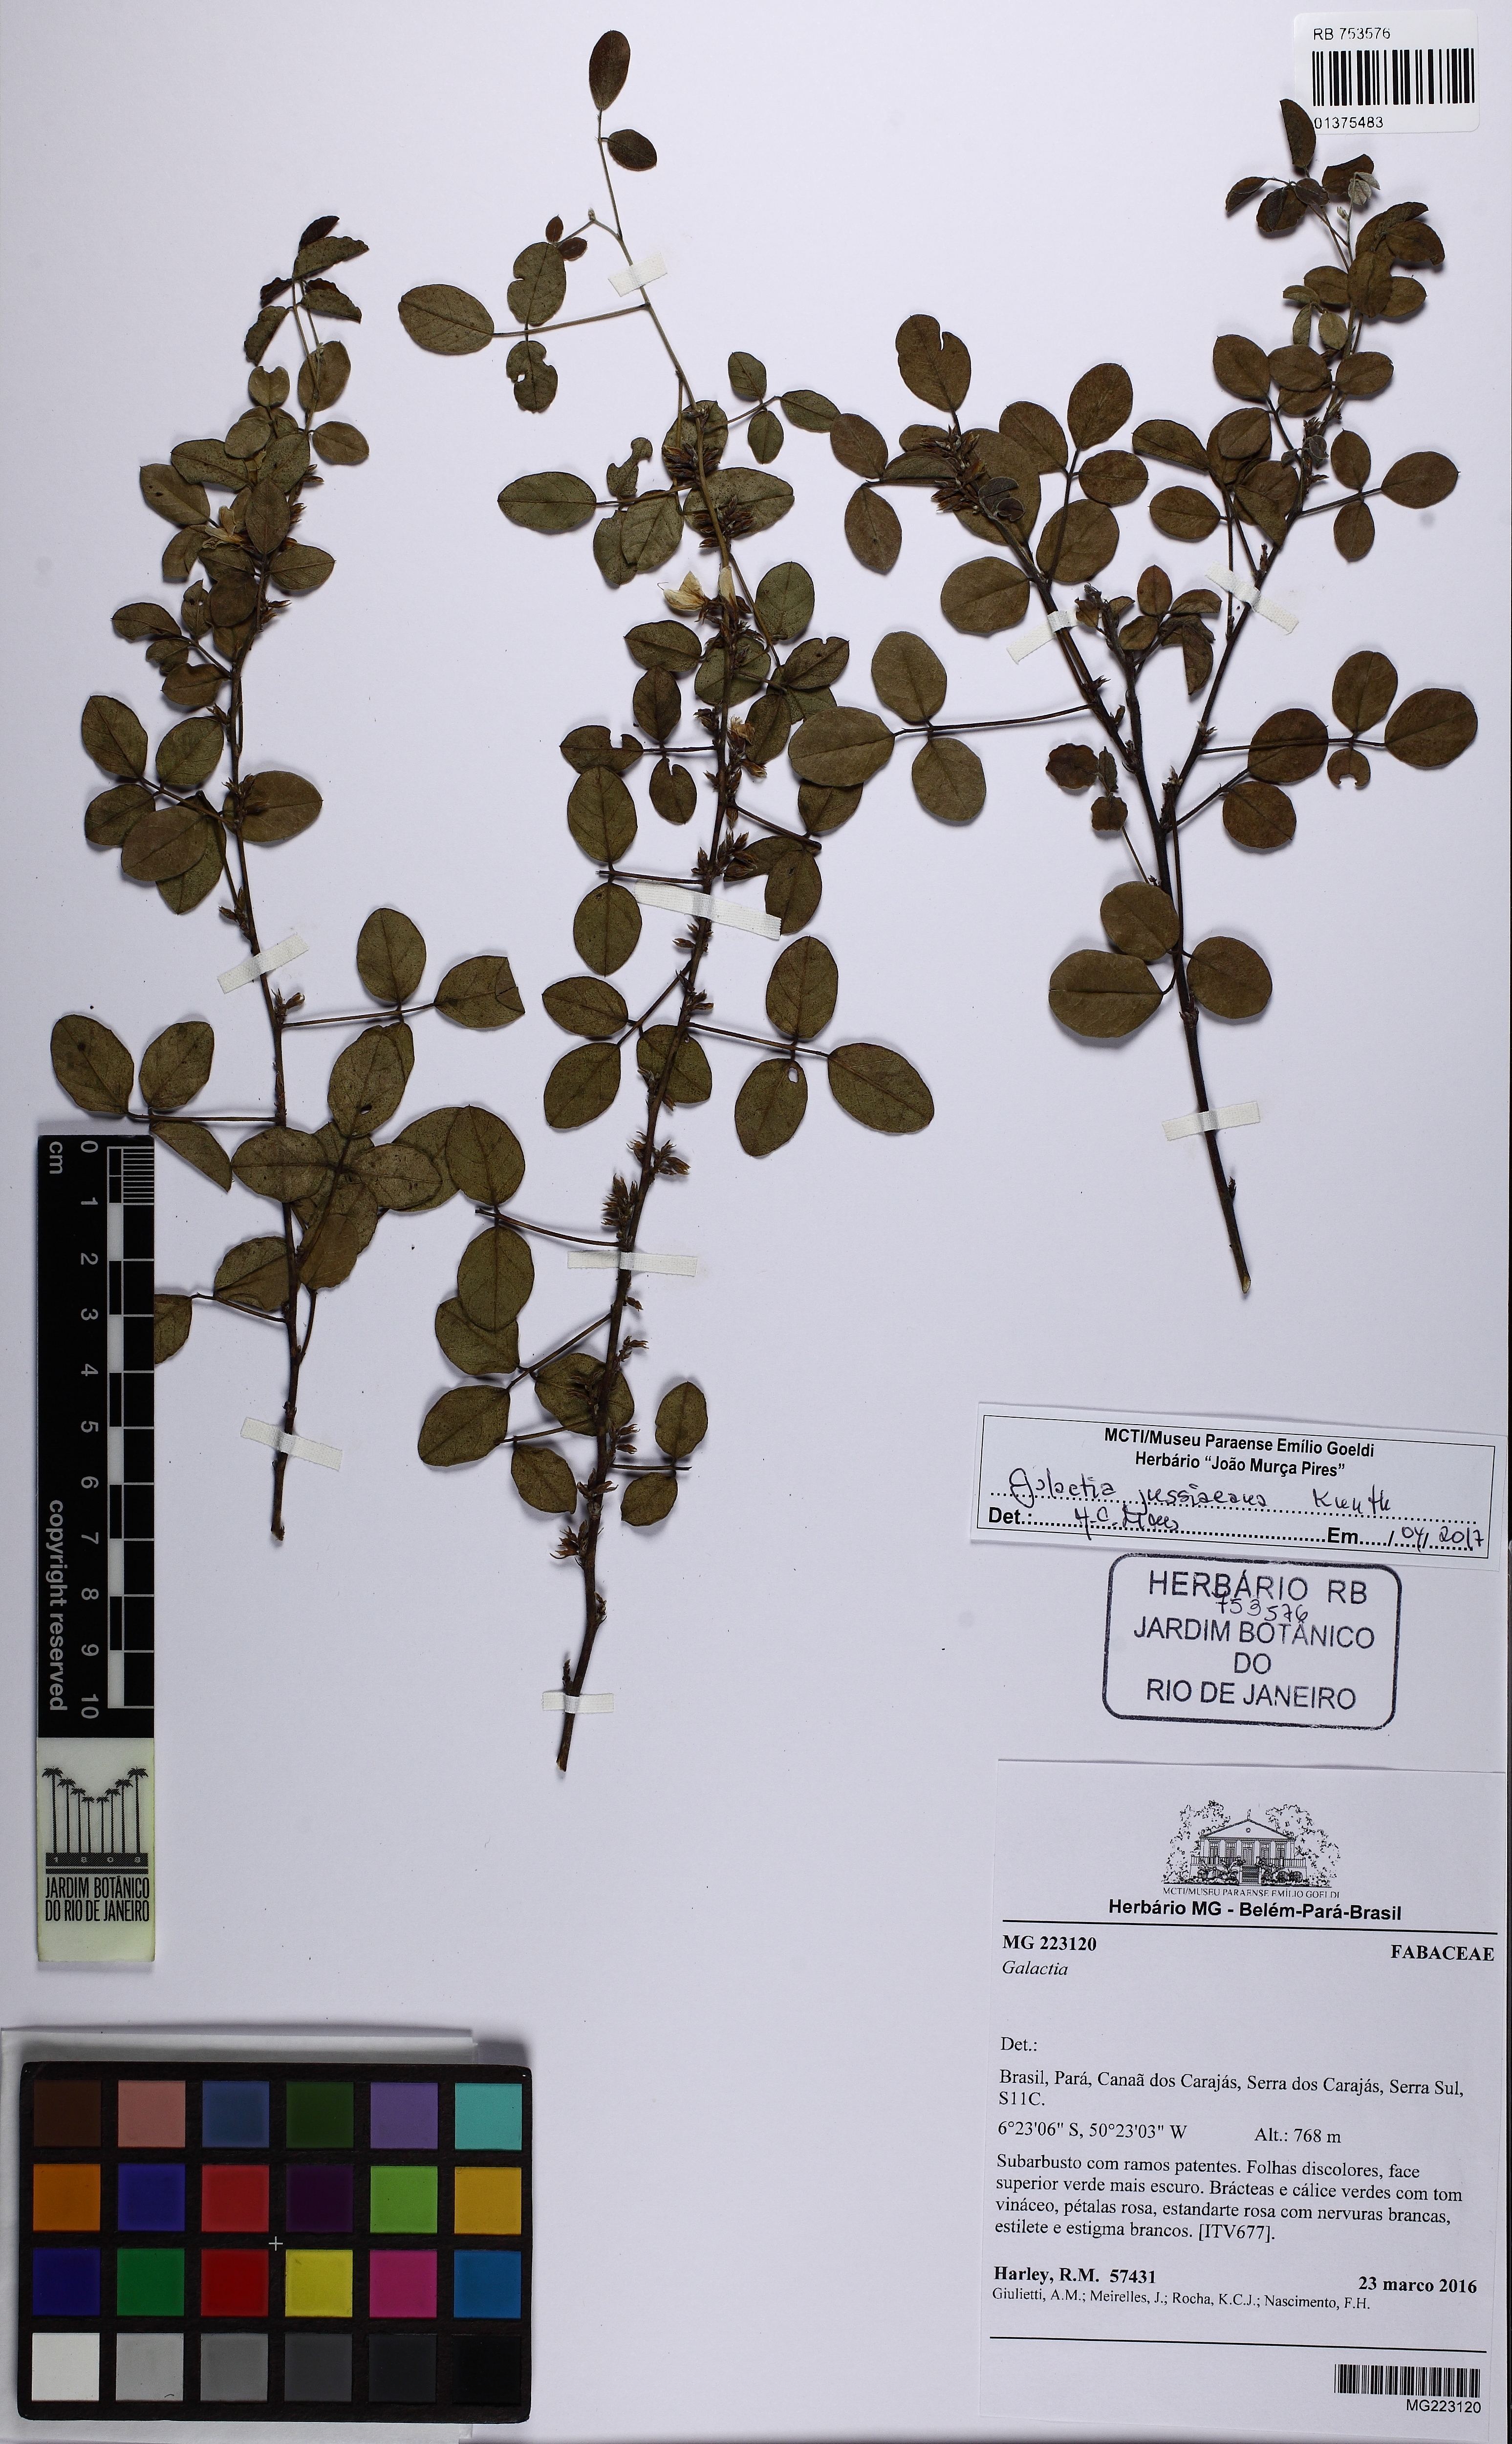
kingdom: Plantae
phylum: Tracheophyta
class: Magnoliopsida
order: Fabales
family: Fabaceae
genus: Galactia
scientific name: Galactia jussiaeana
